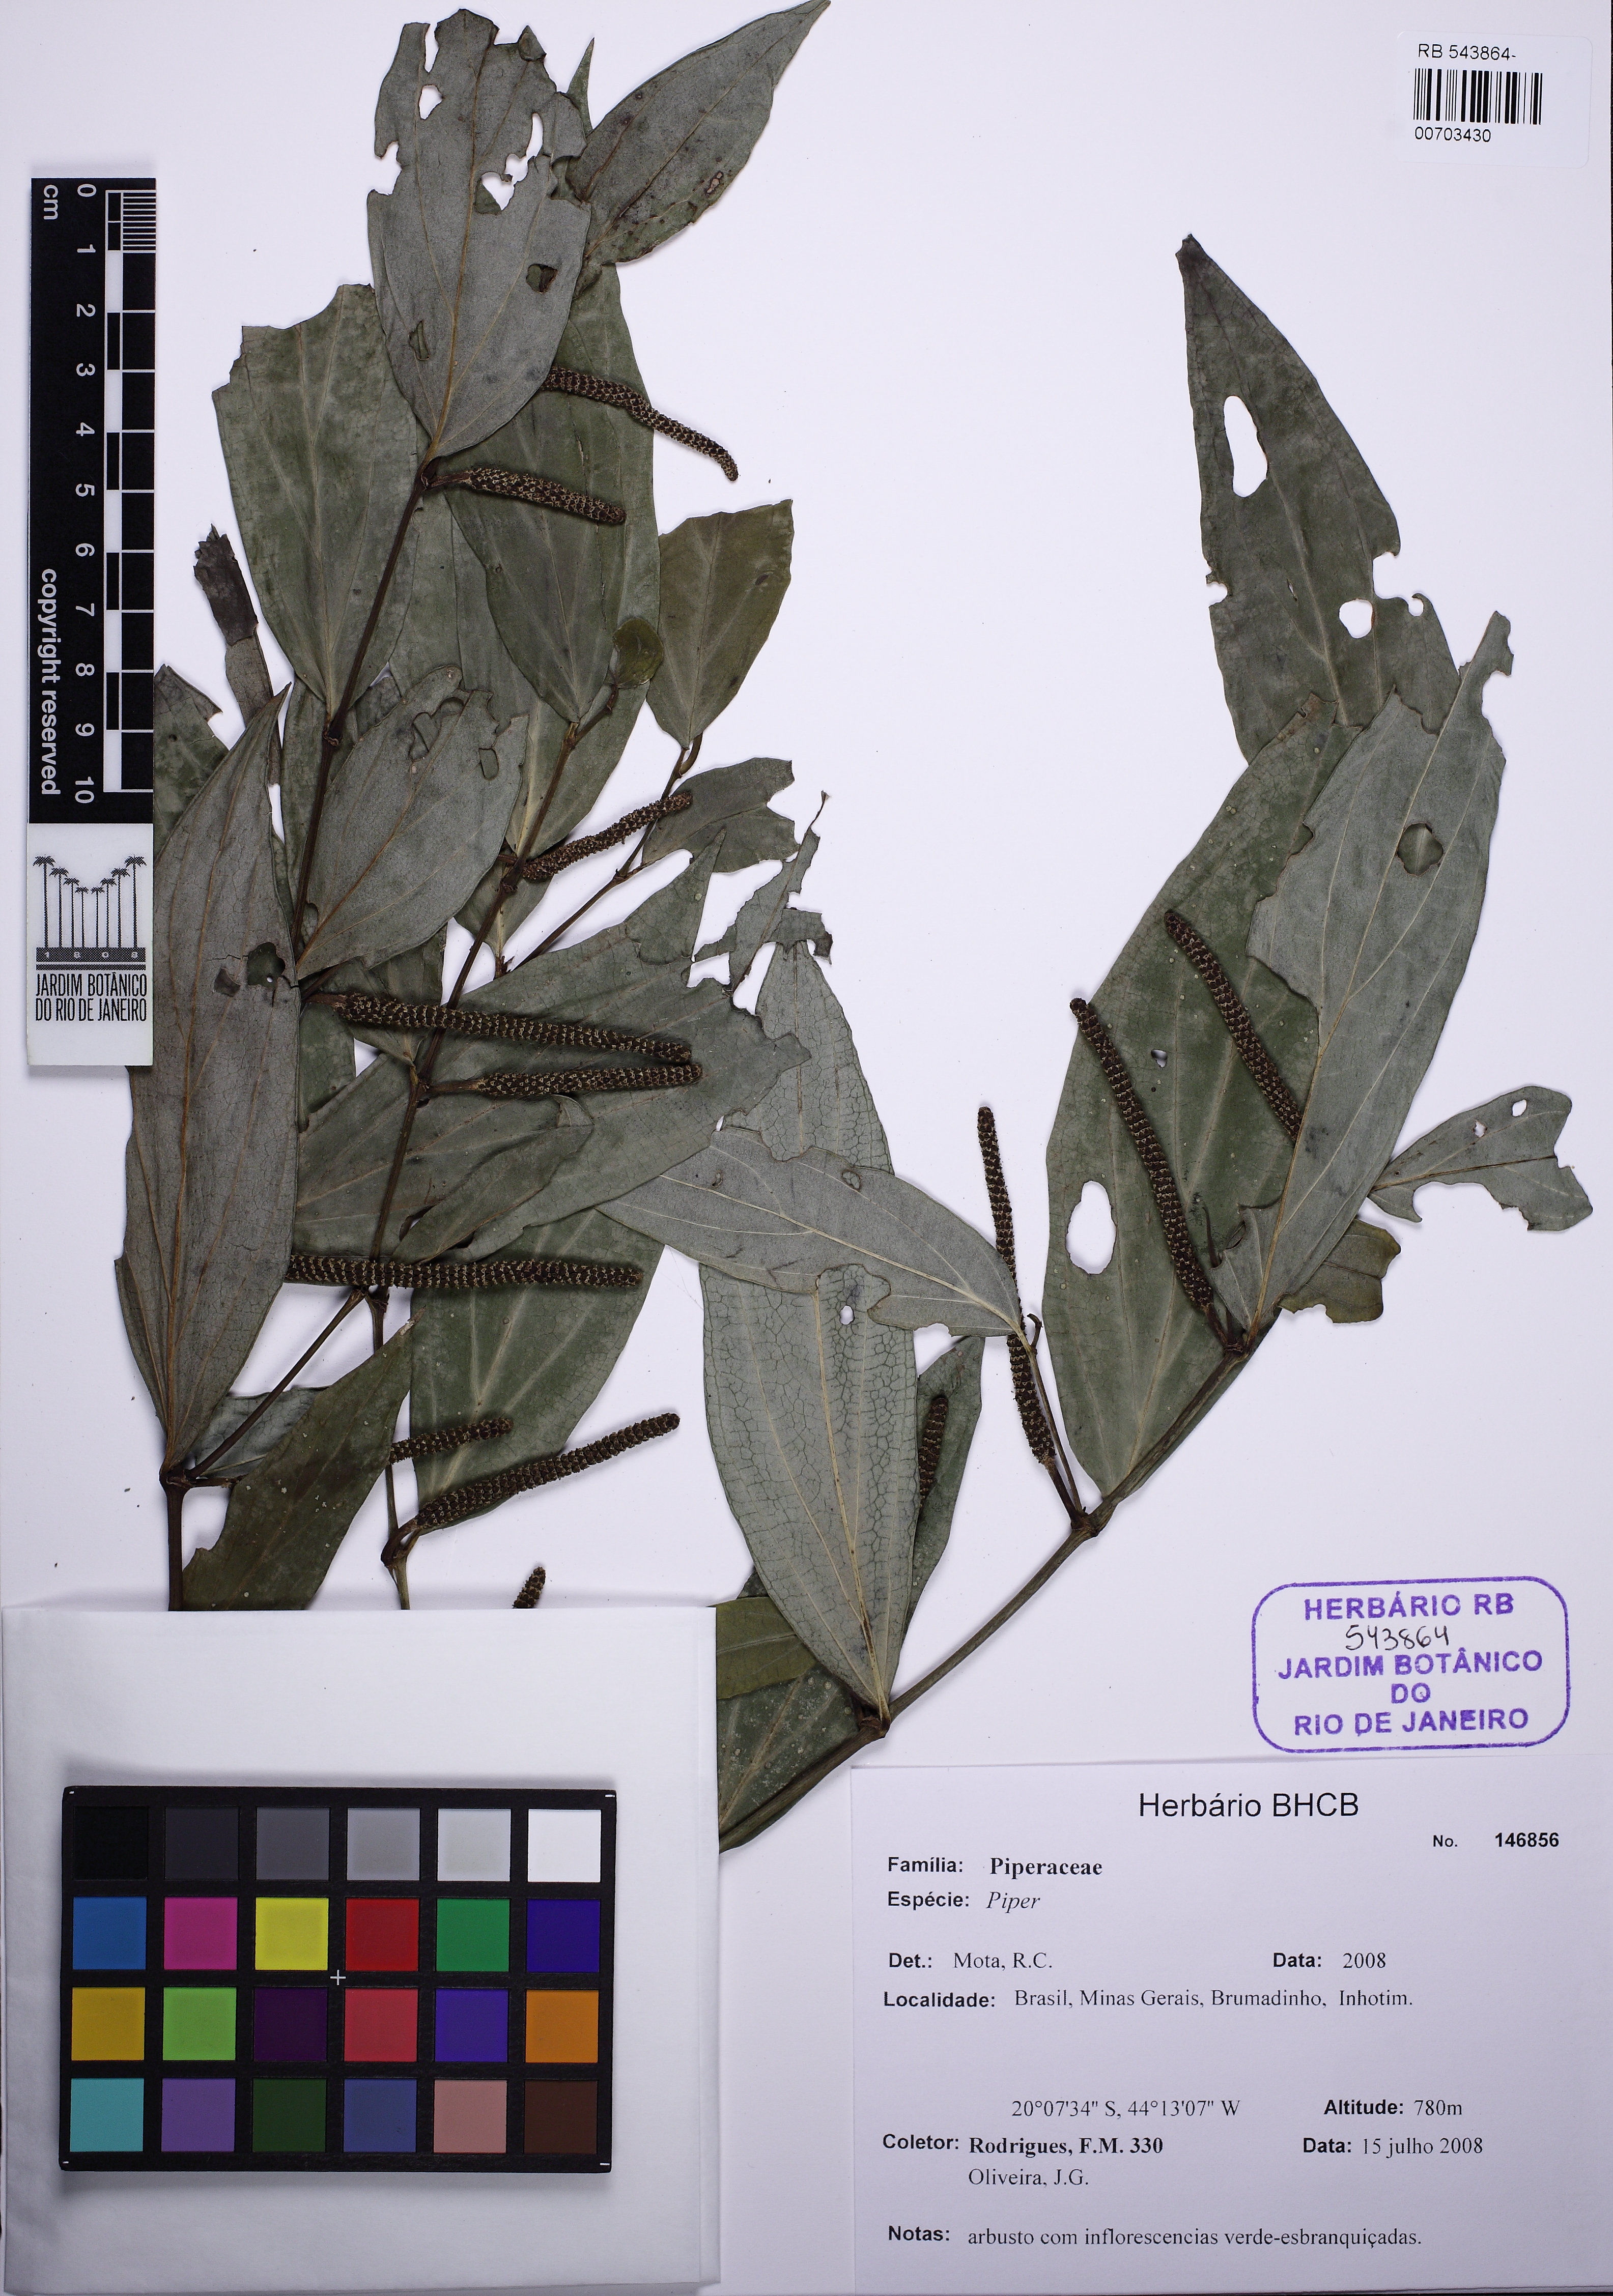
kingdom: Plantae
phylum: Tracheophyta
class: Magnoliopsida
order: Piperales
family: Piperaceae
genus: Piper
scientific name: Piper lhotzkyanum
